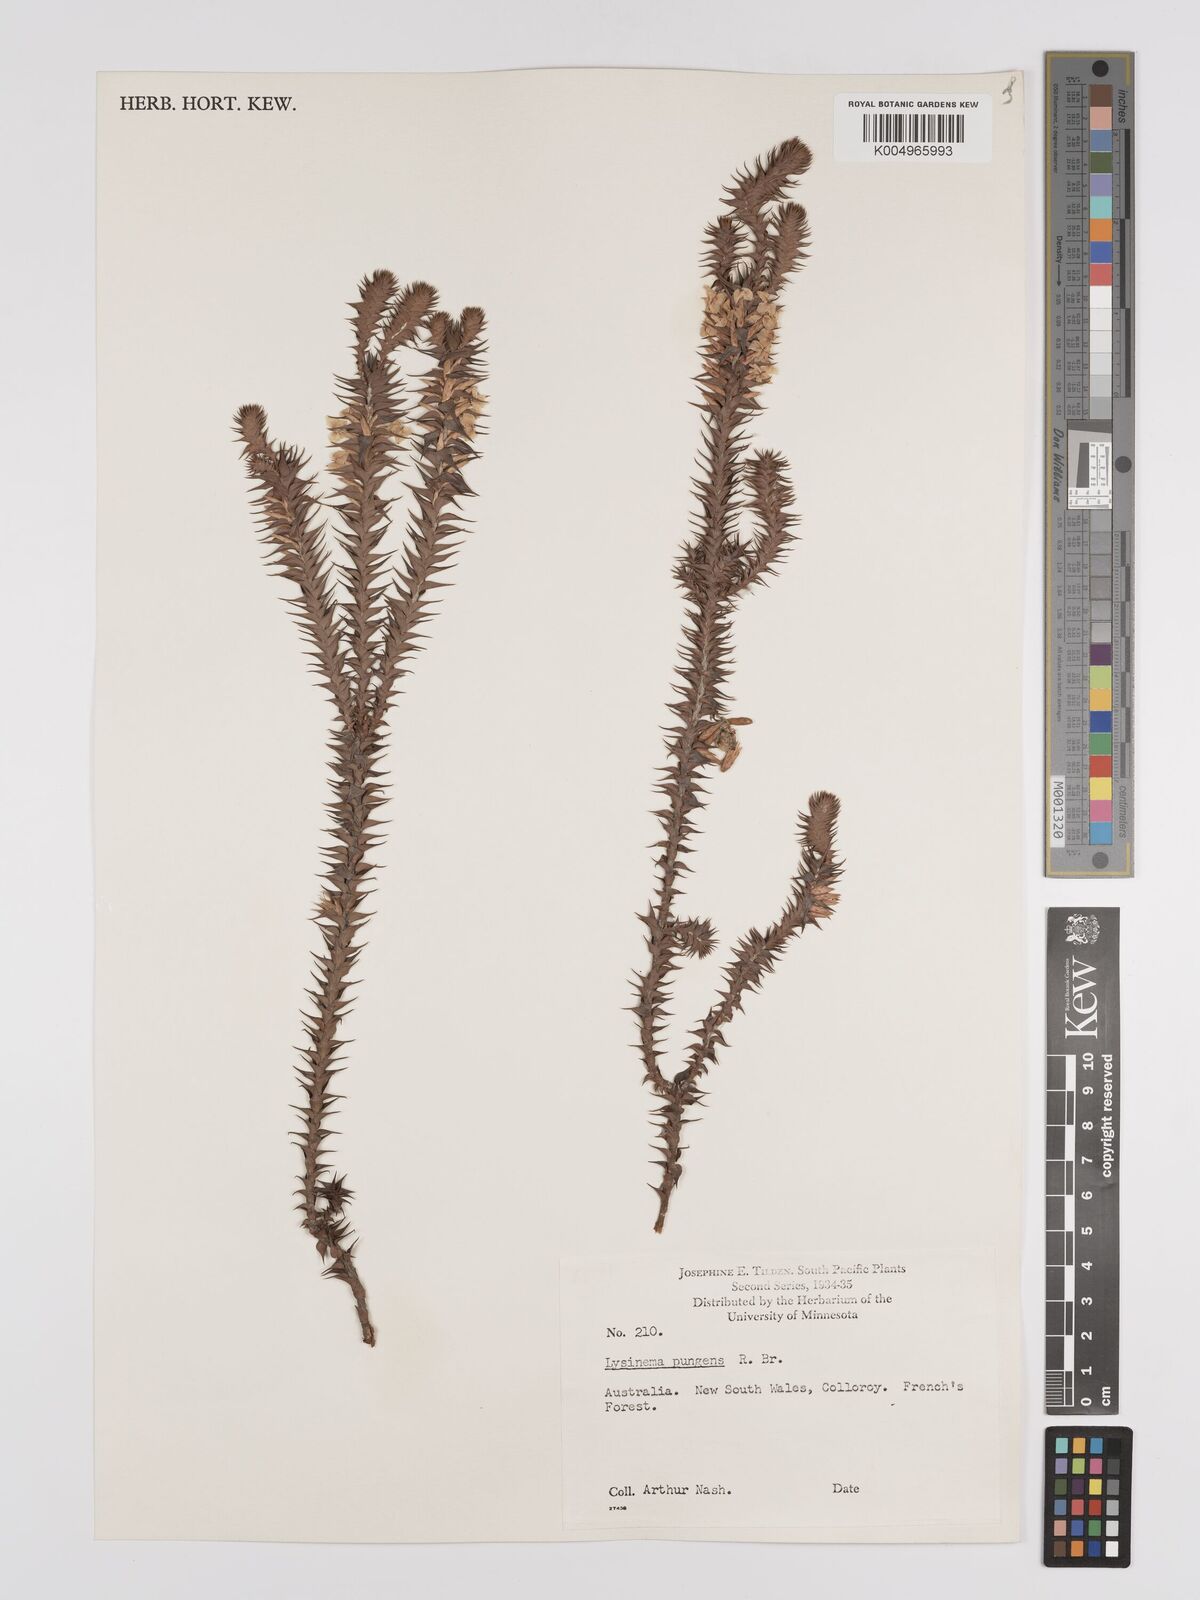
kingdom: Plantae
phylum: Tracheophyta
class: Magnoliopsida
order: Ericales
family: Ericaceae
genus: Woollsia
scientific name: Woollsia pungens
